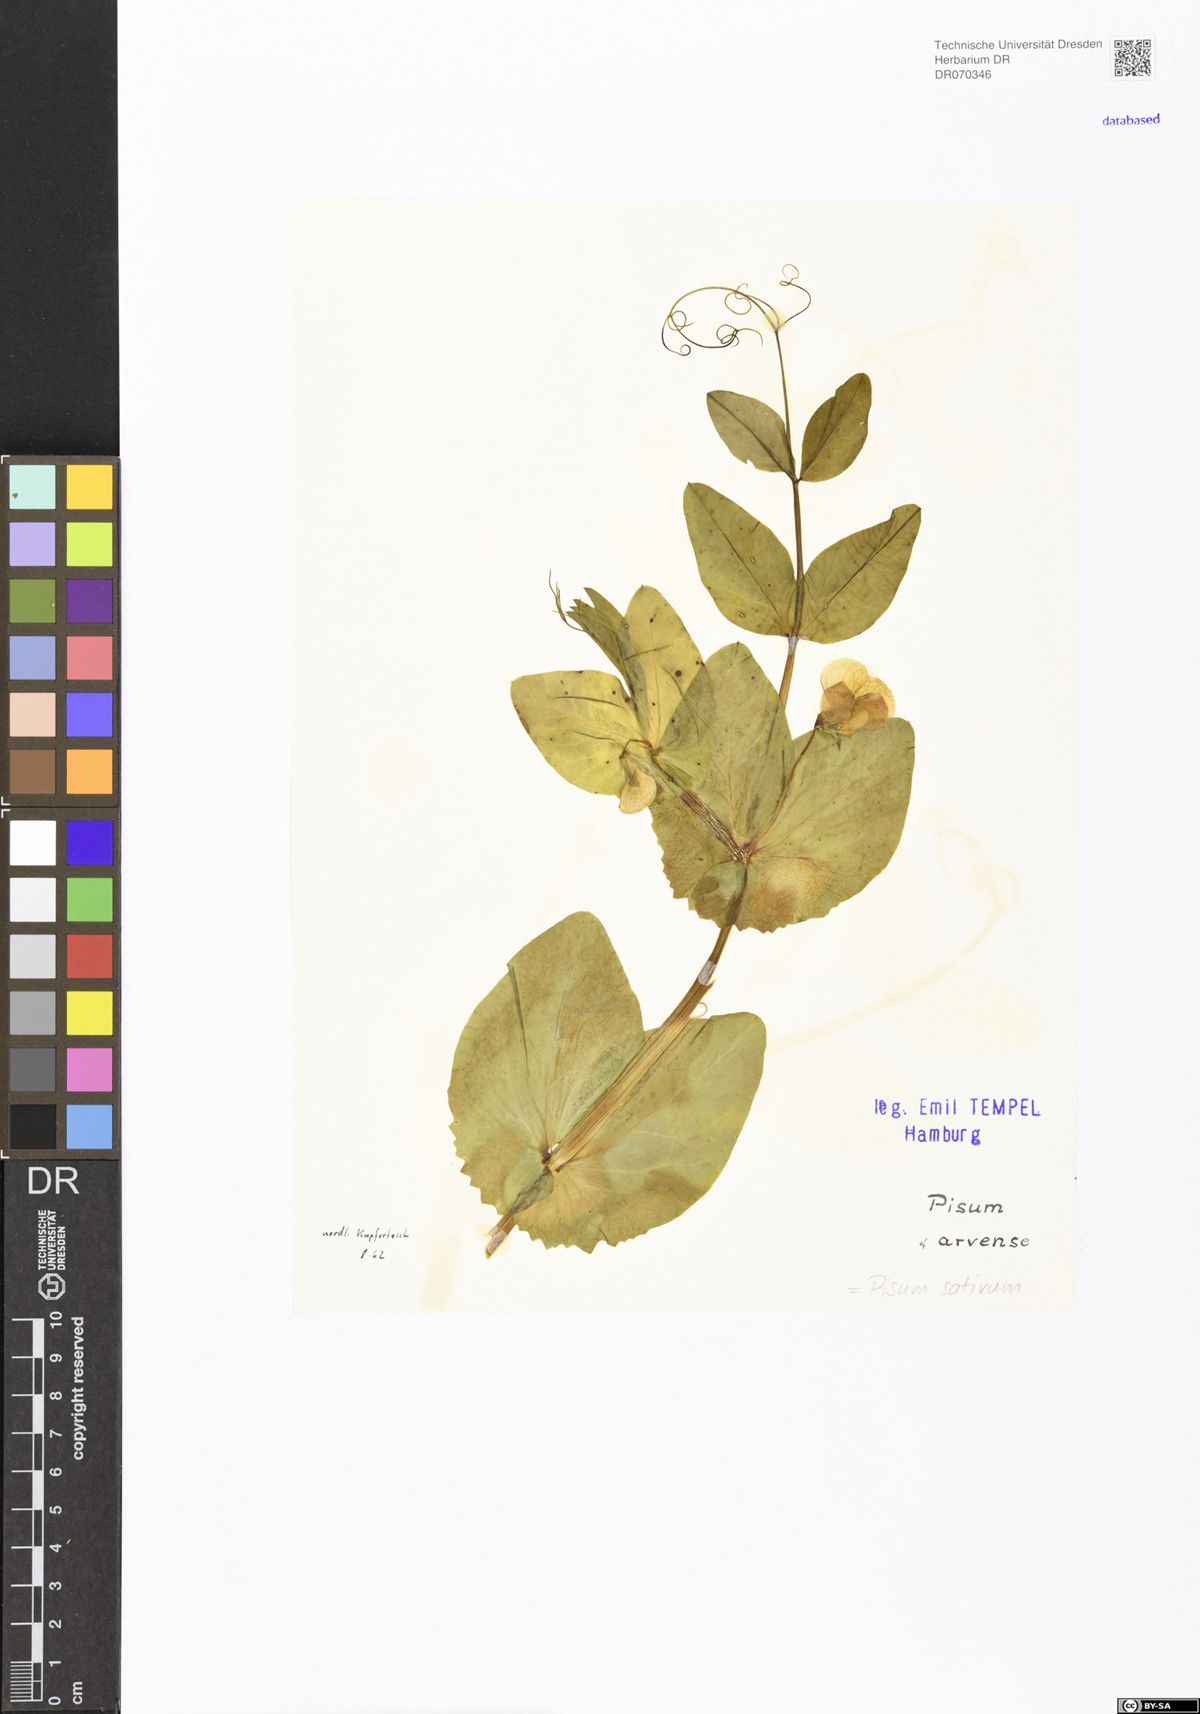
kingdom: Plantae
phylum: Tracheophyta
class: Magnoliopsida
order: Fabales
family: Fabaceae
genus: Lathyrus
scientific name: Lathyrus oleraceus
